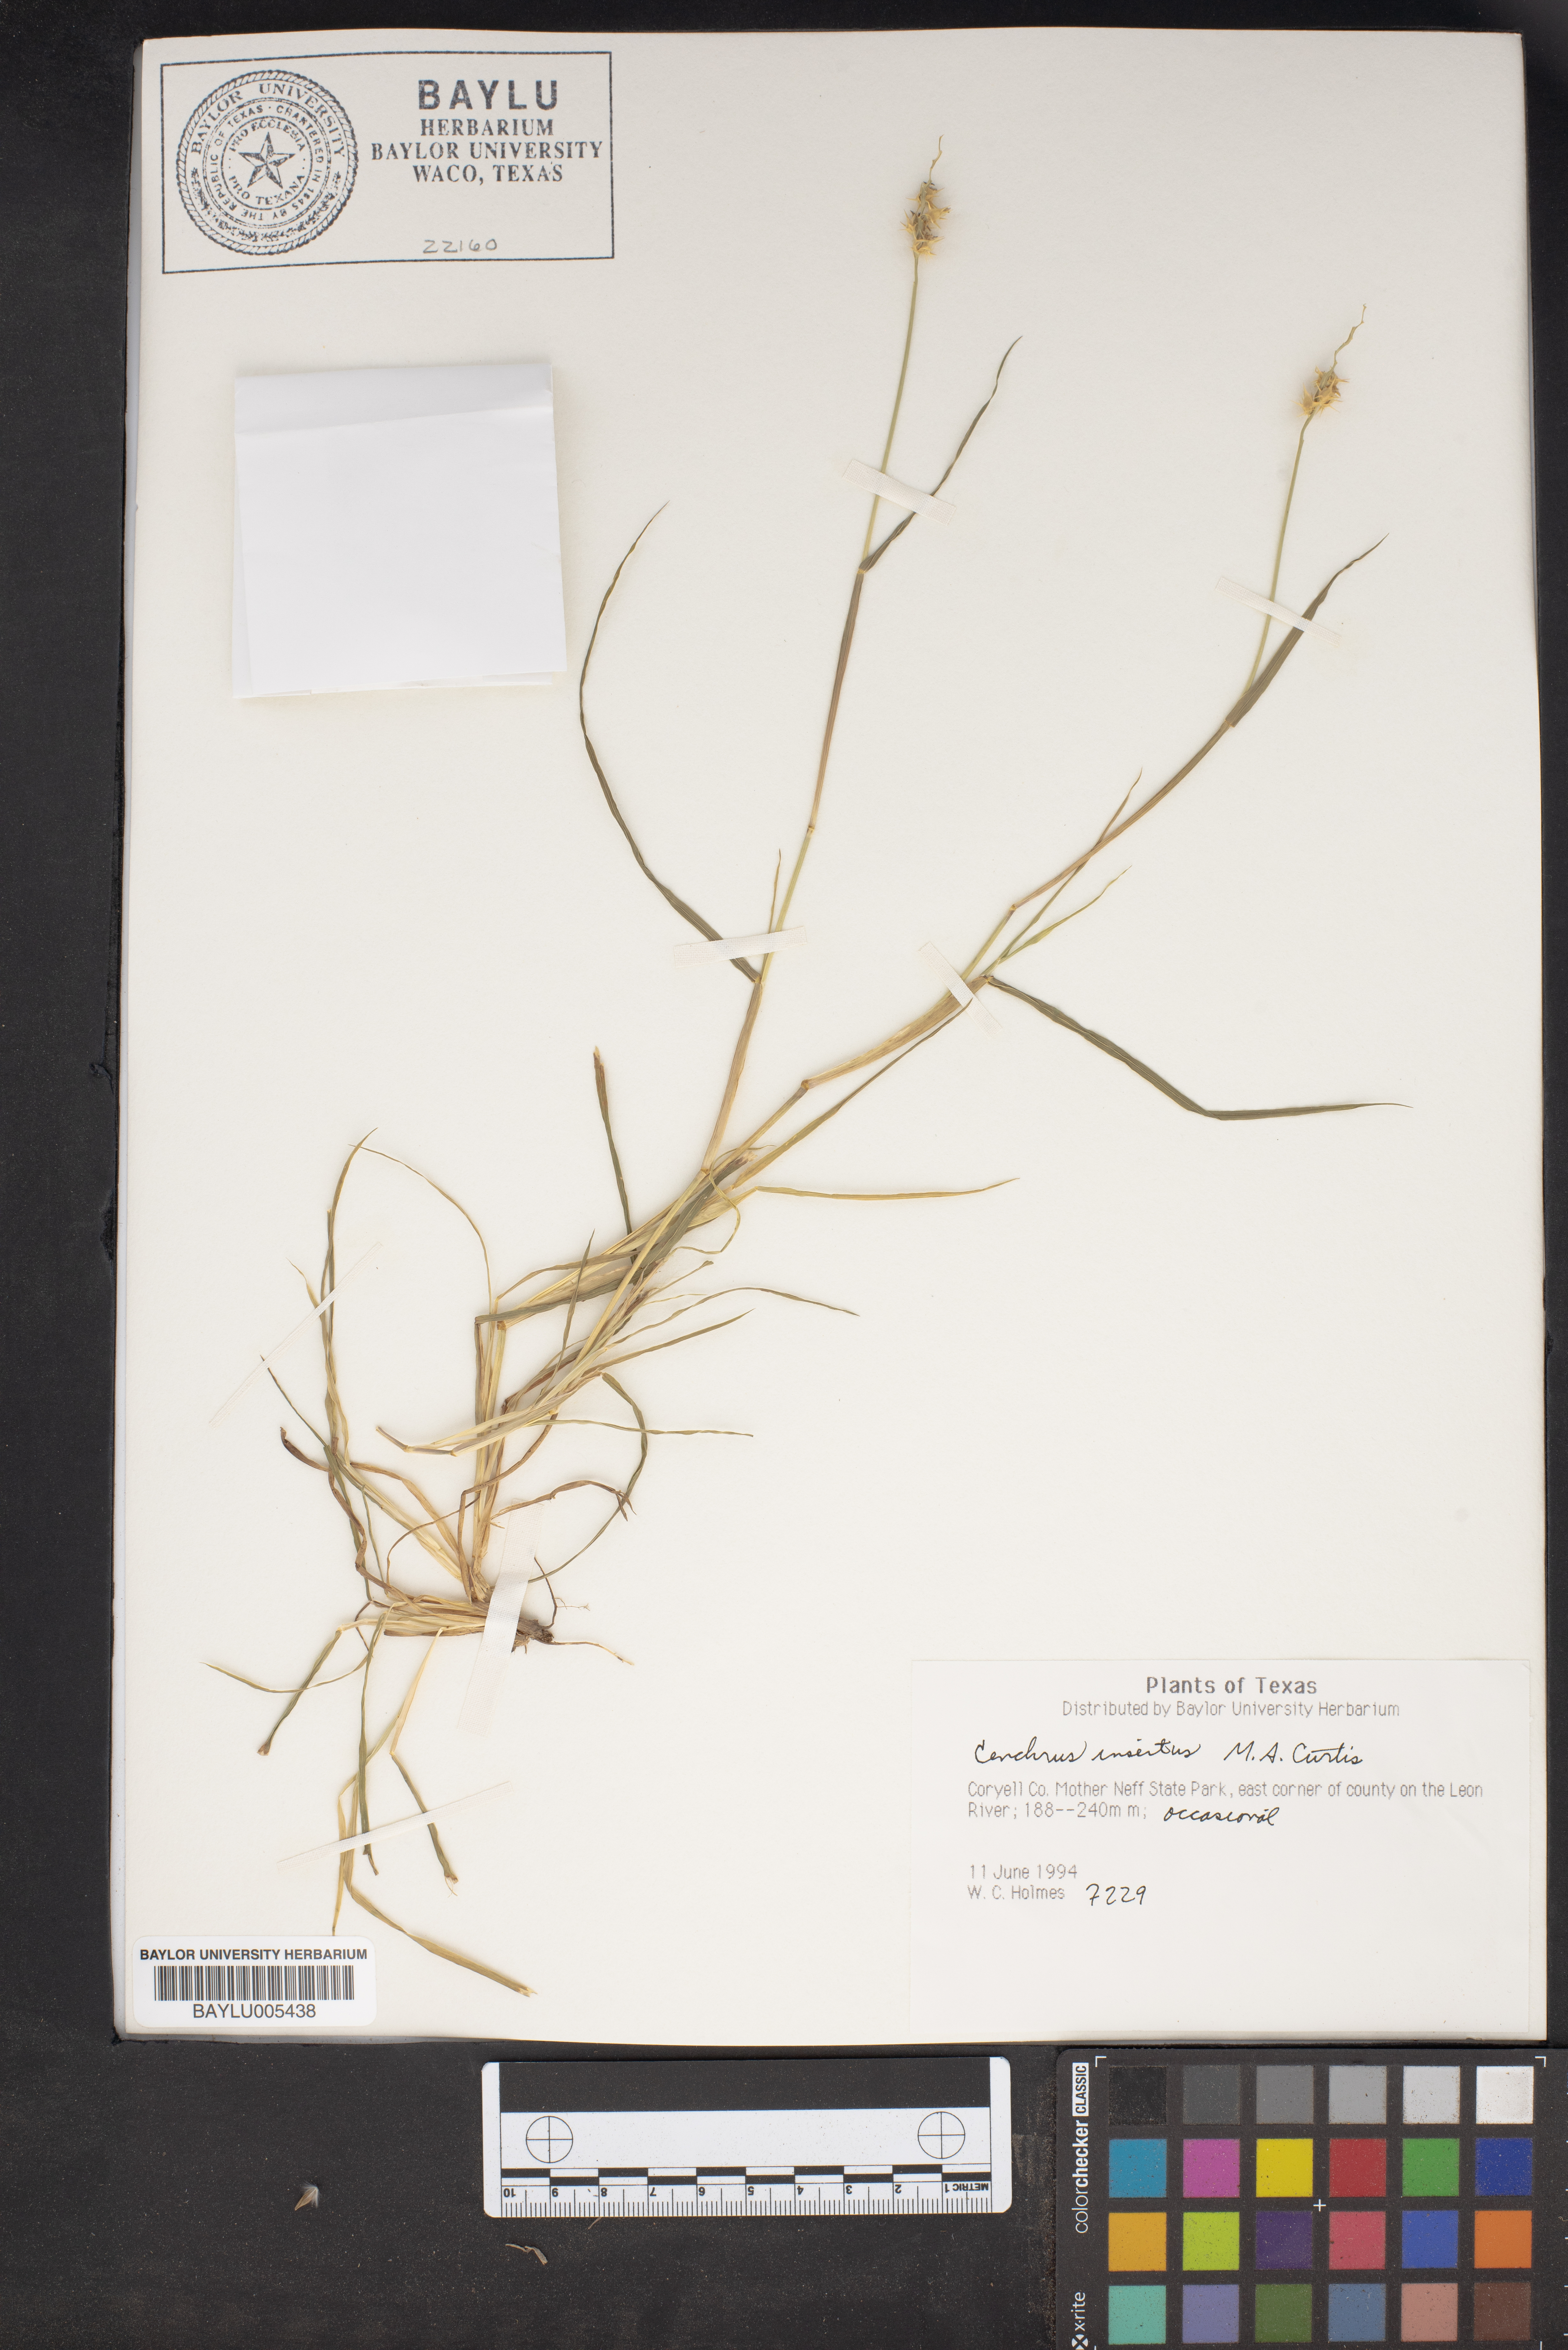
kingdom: Plantae
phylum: Tracheophyta
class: Liliopsida
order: Poales
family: Poaceae
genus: Cenchrus
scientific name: Cenchrus spinifex
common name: Coast sandbur
